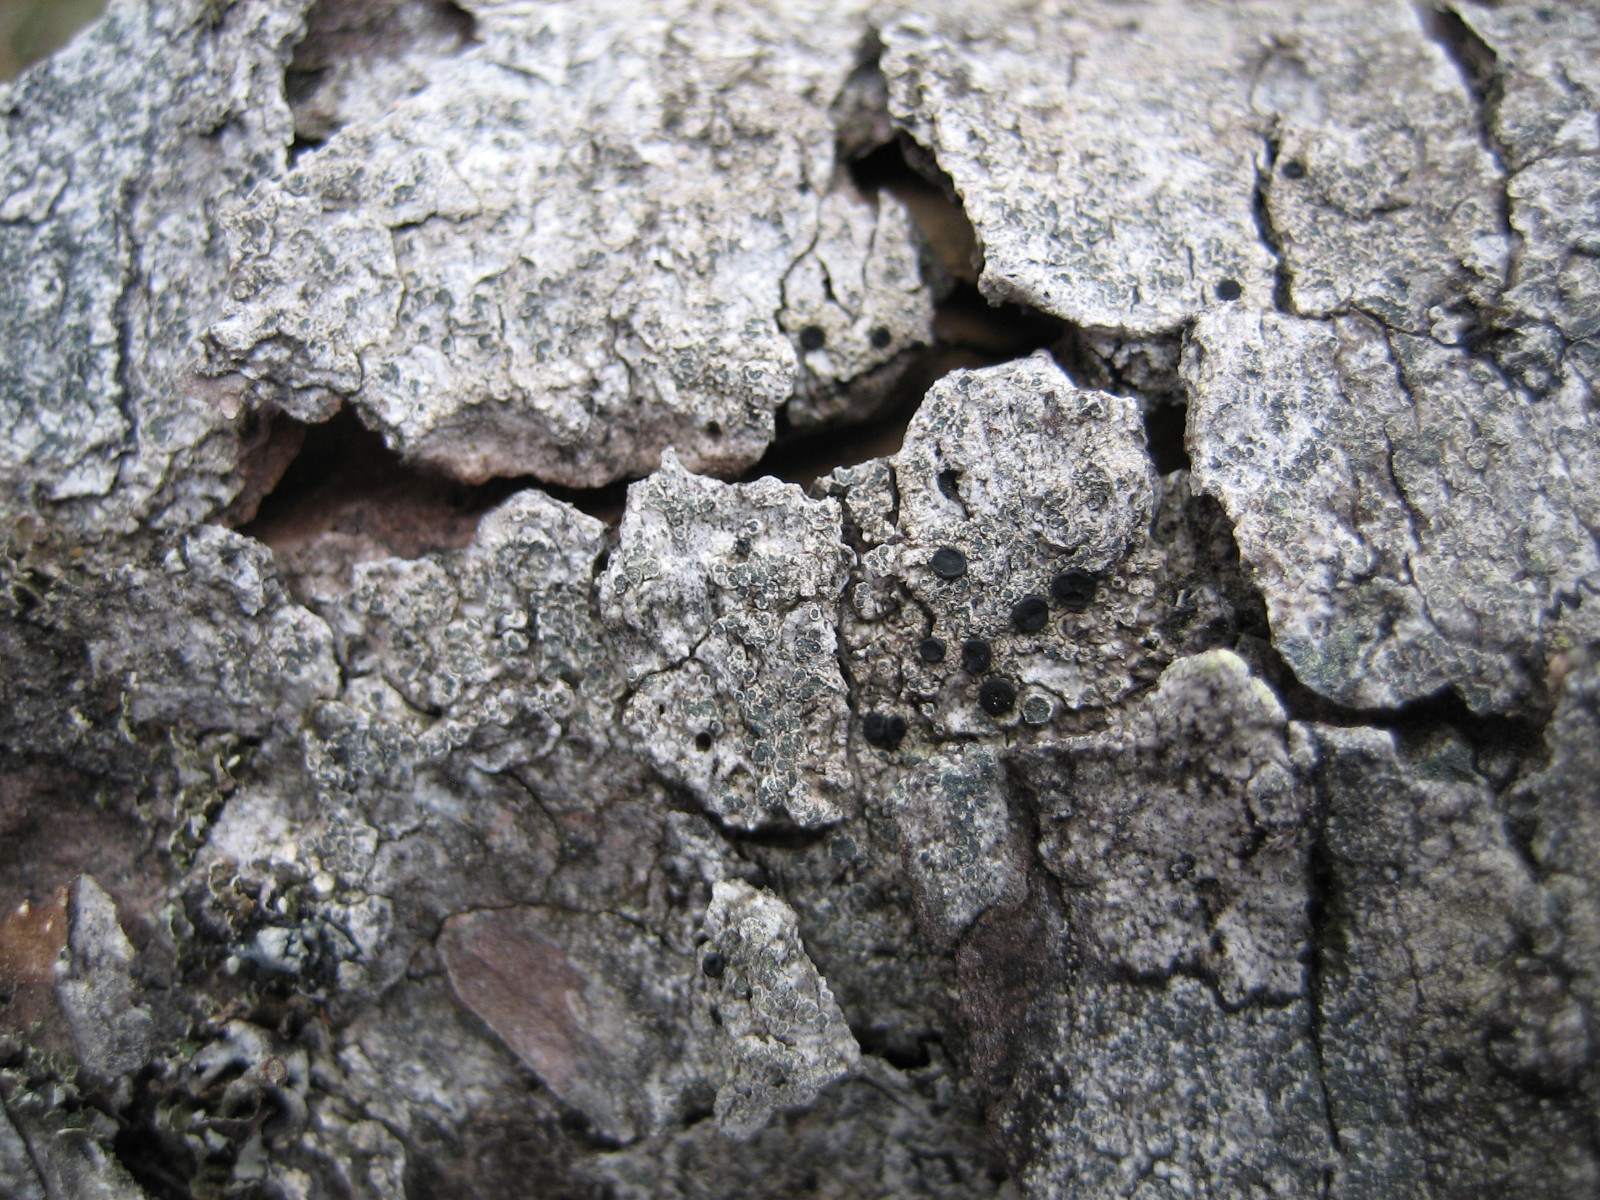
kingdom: Fungi
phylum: Ascomycota
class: Lecanoromycetes
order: Caliciales
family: Caliciaceae
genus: Buellia
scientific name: Buellia griseovirens
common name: grågrøn sortskivelav
